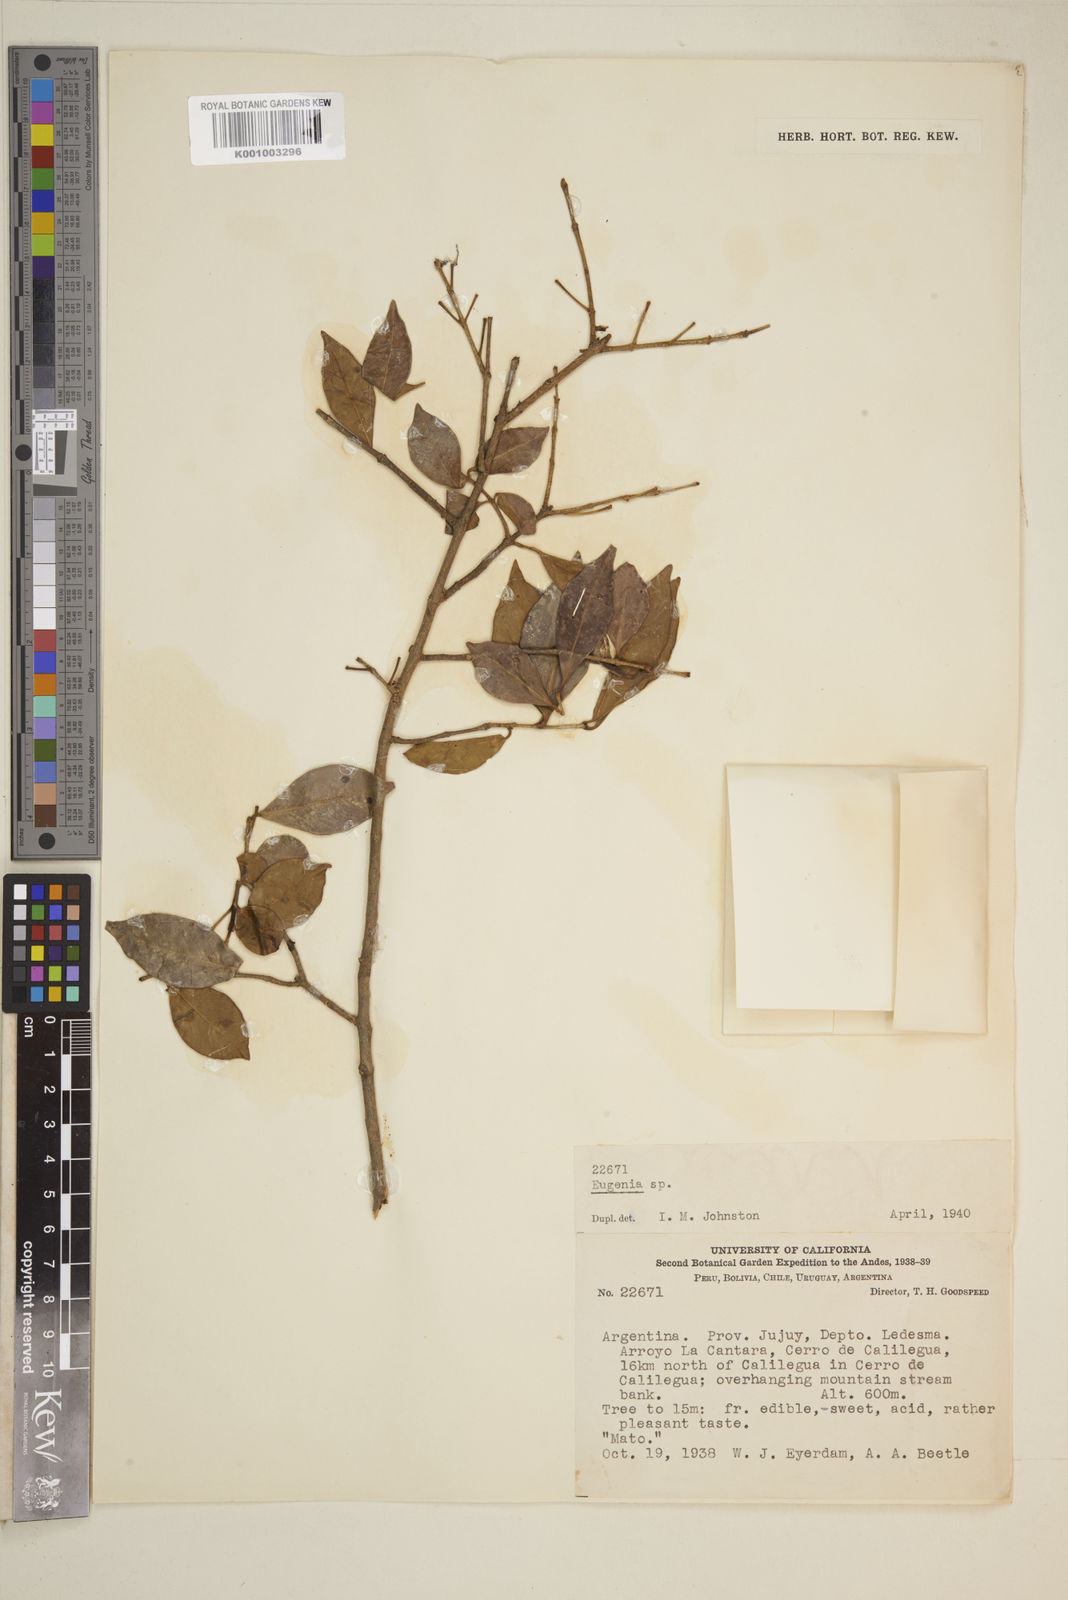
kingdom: Plantae
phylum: Tracheophyta
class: Magnoliopsida
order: Myrtales
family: Myrtaceae
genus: Eugenia
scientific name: Eugenia
